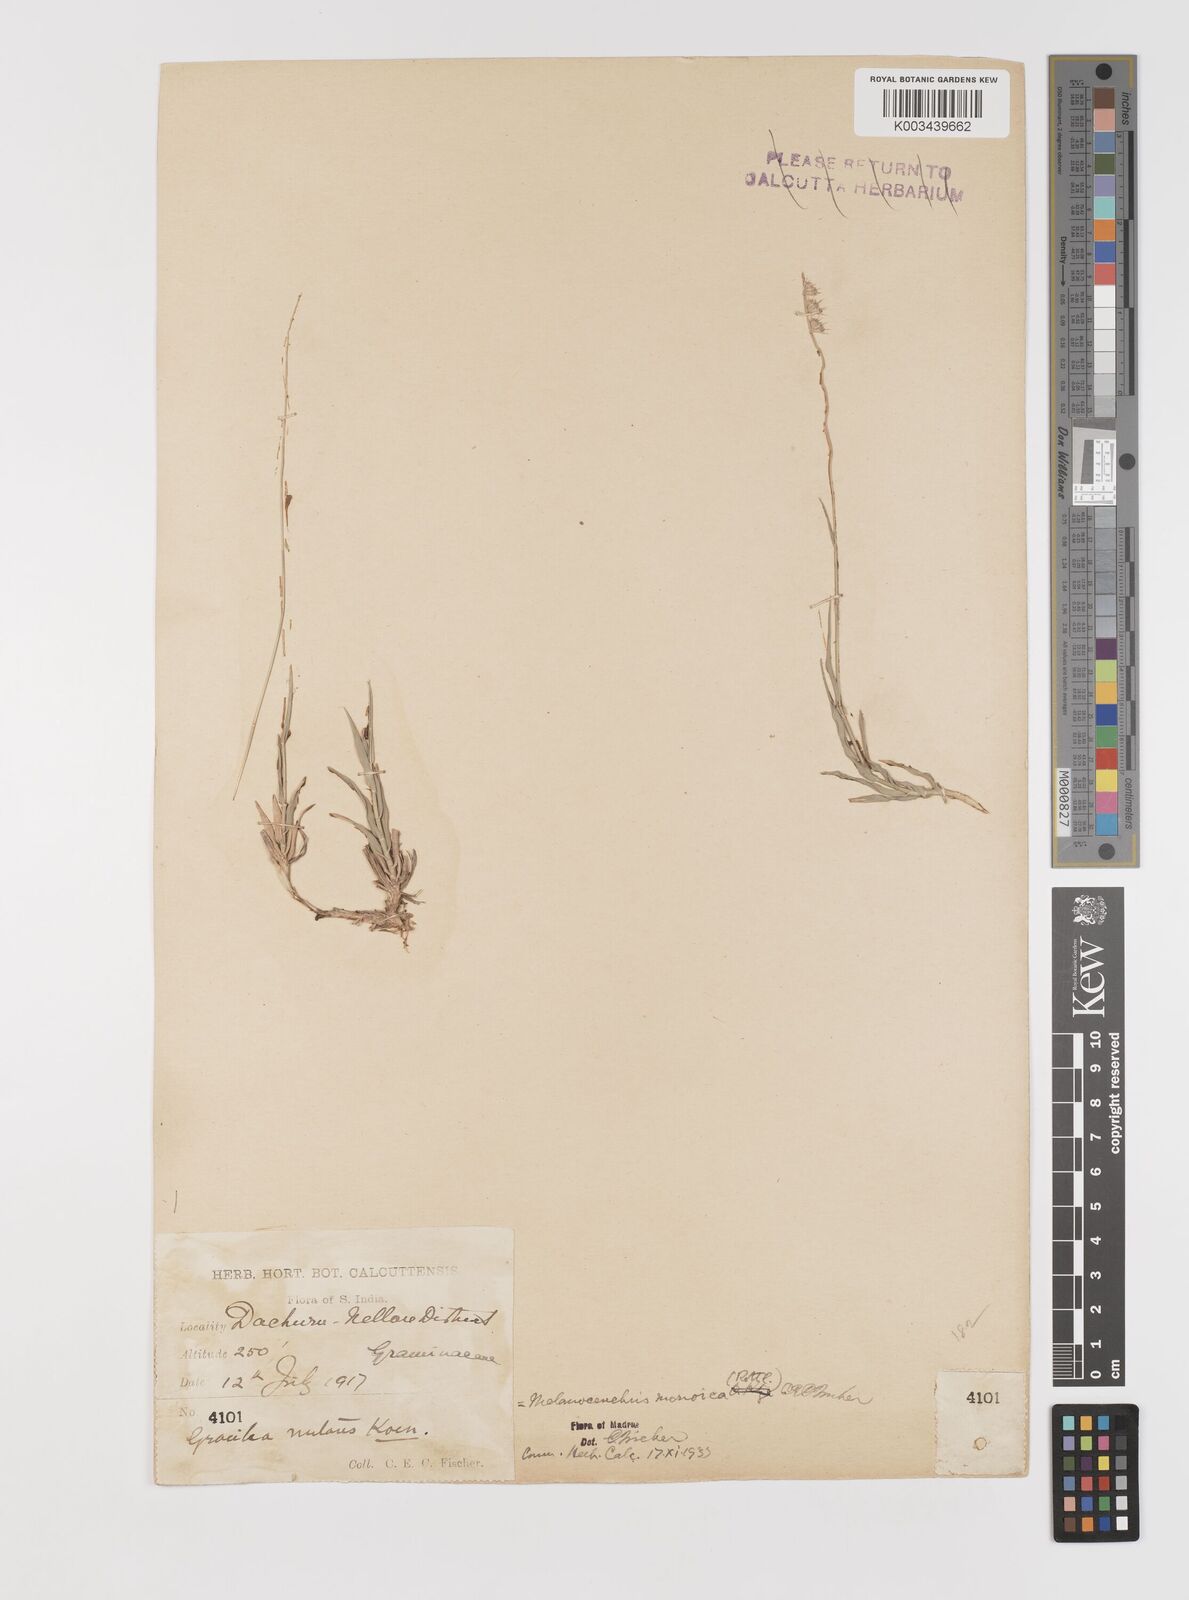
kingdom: Plantae
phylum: Tracheophyta
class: Liliopsida
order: Poales
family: Poaceae
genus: Melanocenchris
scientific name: Melanocenchris rothiana
